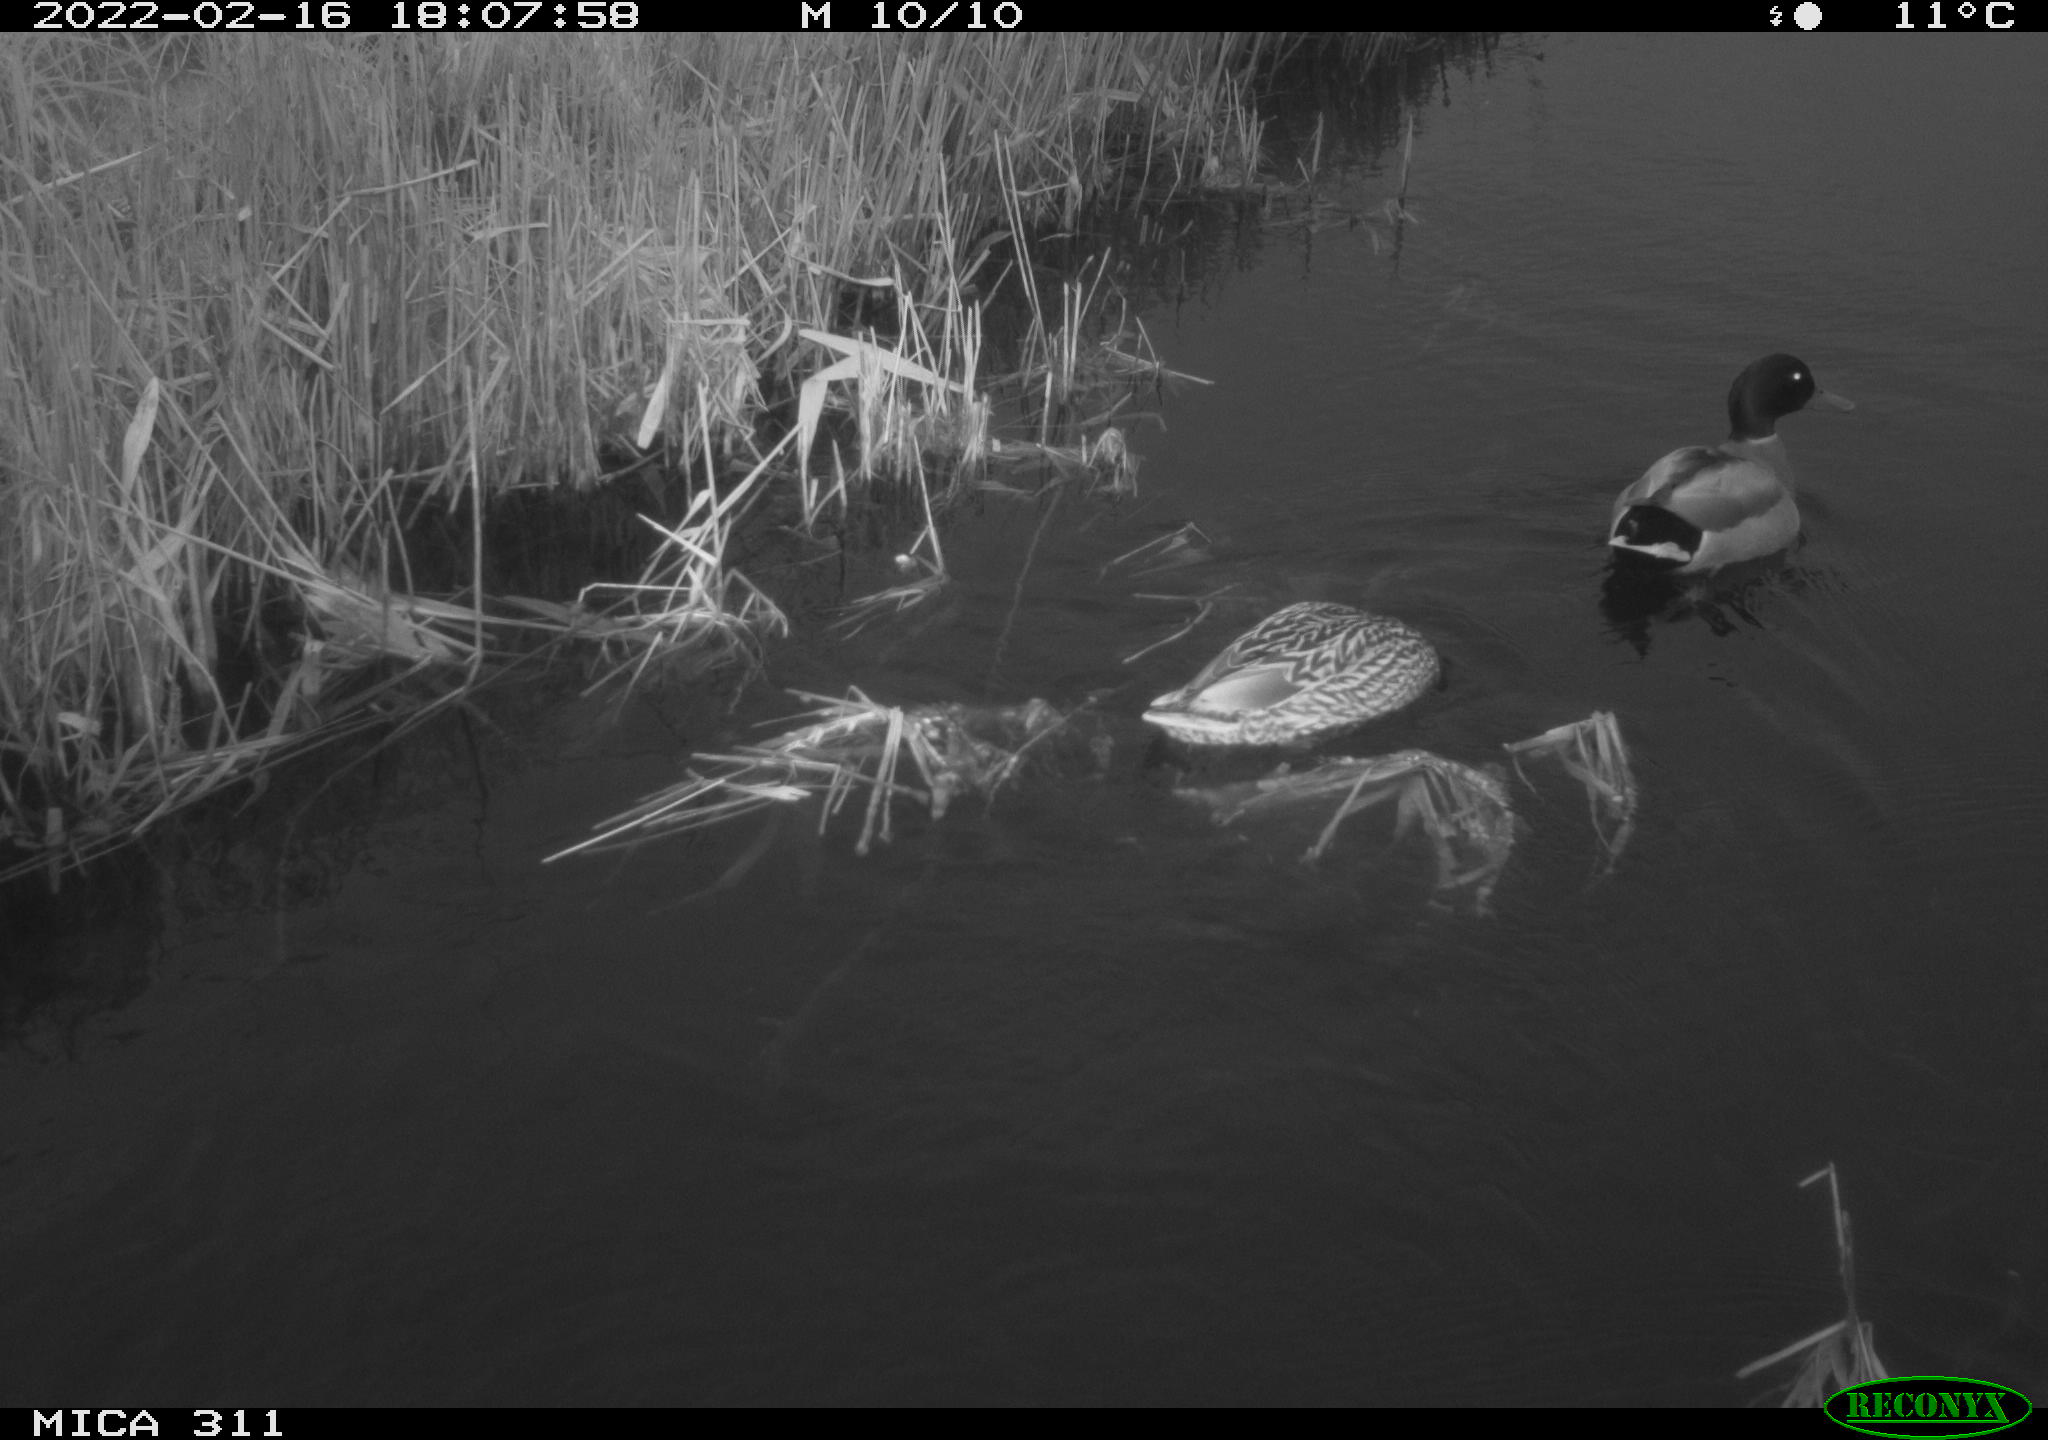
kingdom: Animalia
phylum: Chordata
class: Aves
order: Anseriformes
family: Anatidae
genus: Anas
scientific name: Anas
